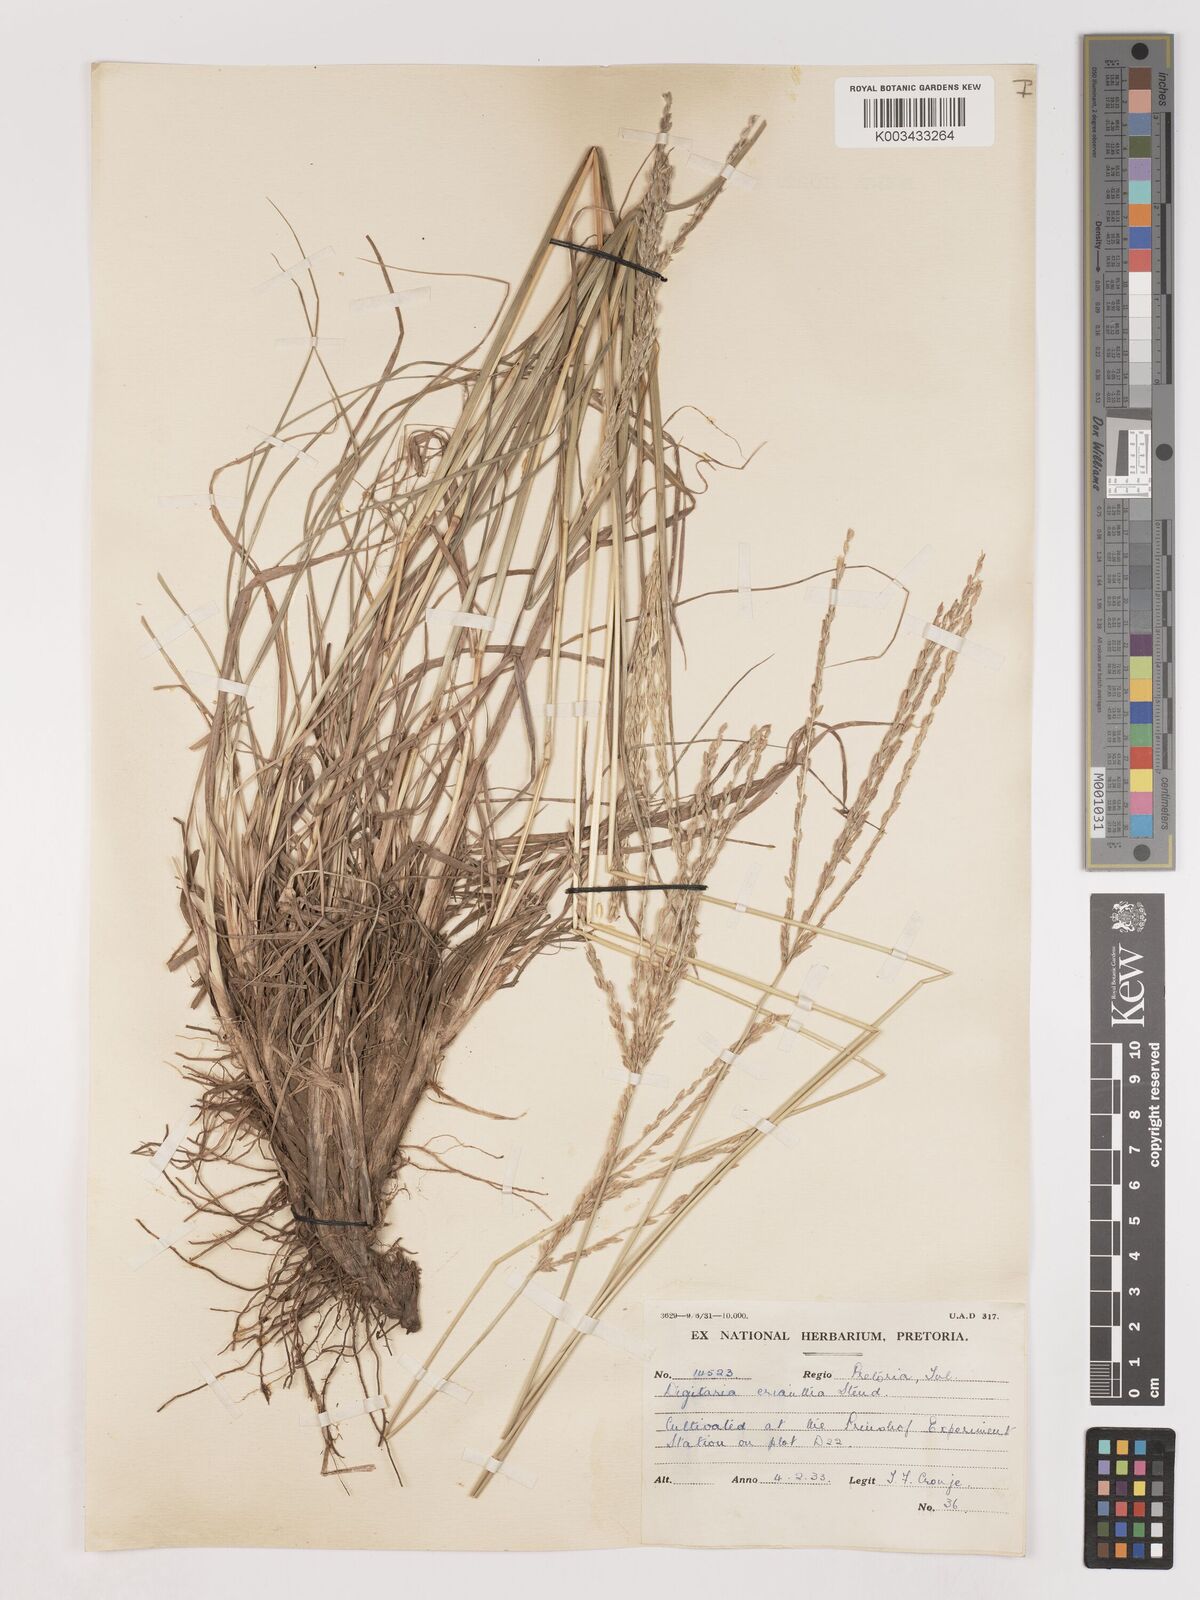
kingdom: Plantae
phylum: Tracheophyta
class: Liliopsida
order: Poales
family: Poaceae
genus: Digitaria
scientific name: Digitaria eriantha
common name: Digitgrass
